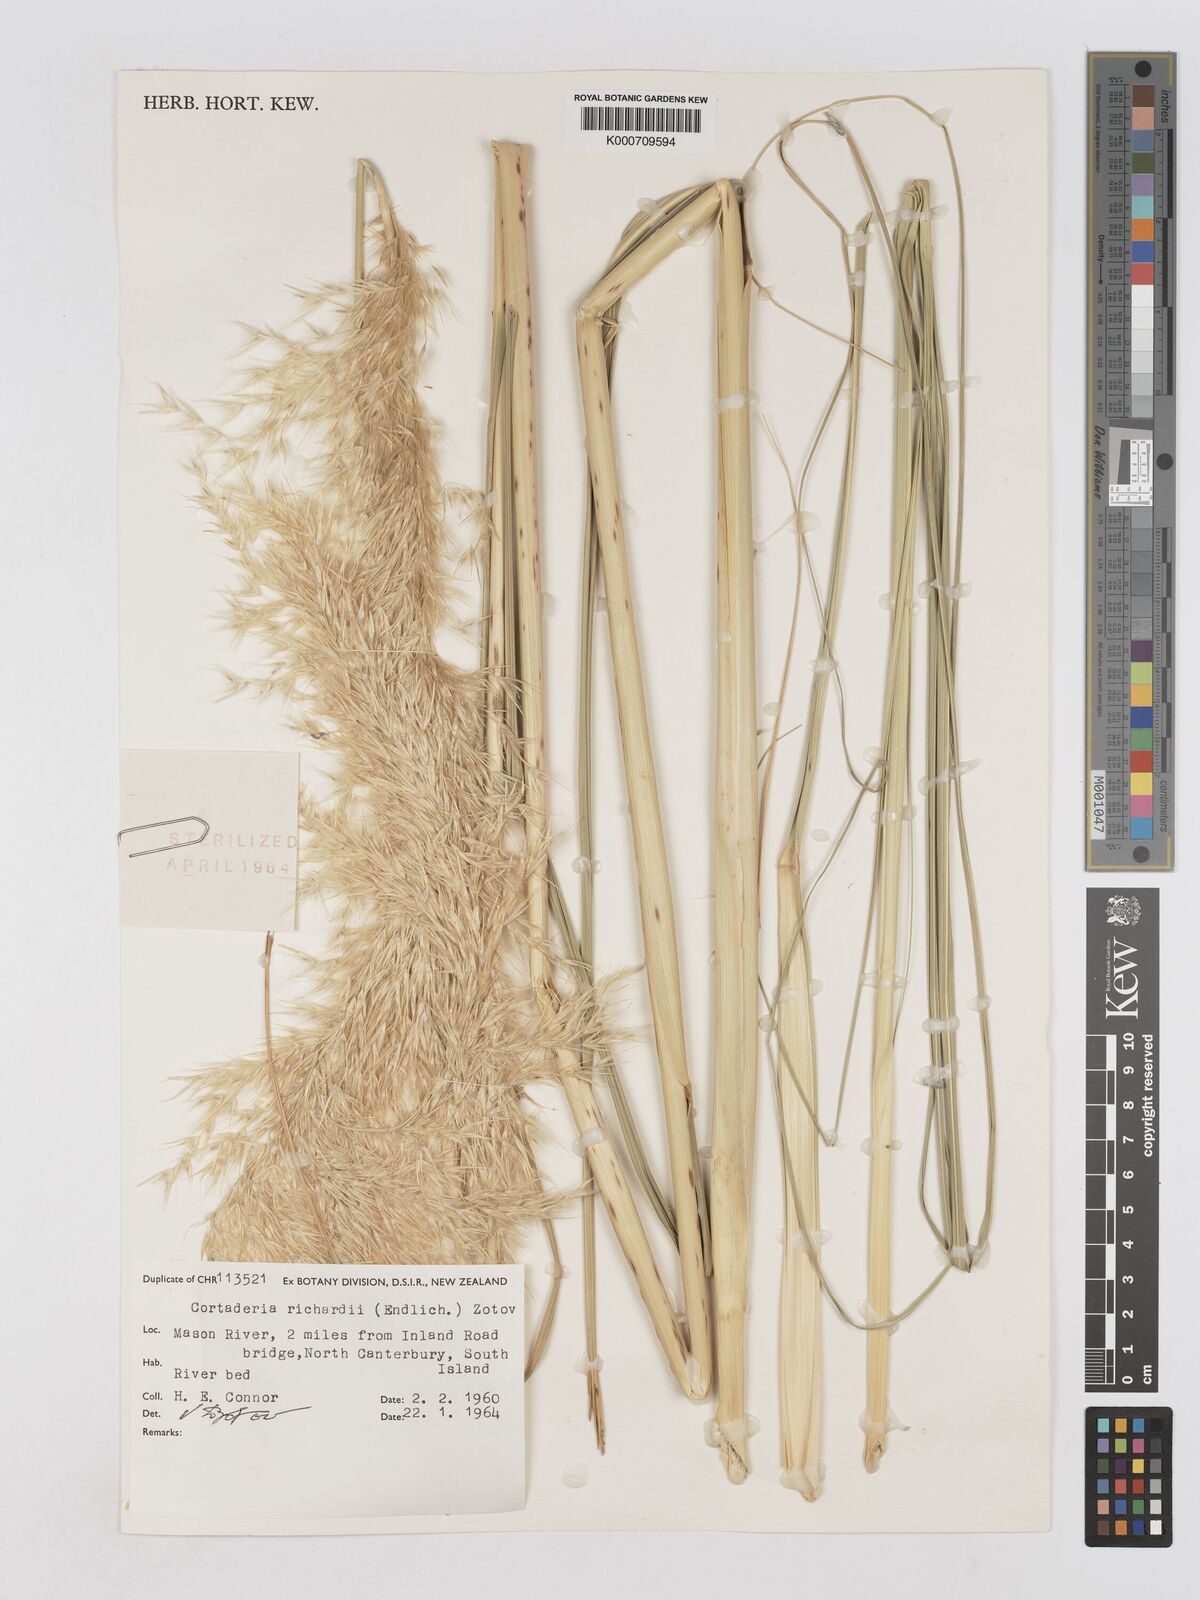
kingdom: Plantae
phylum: Tracheophyta
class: Liliopsida
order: Poales
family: Poaceae
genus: Austroderia
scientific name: Austroderia richardii
